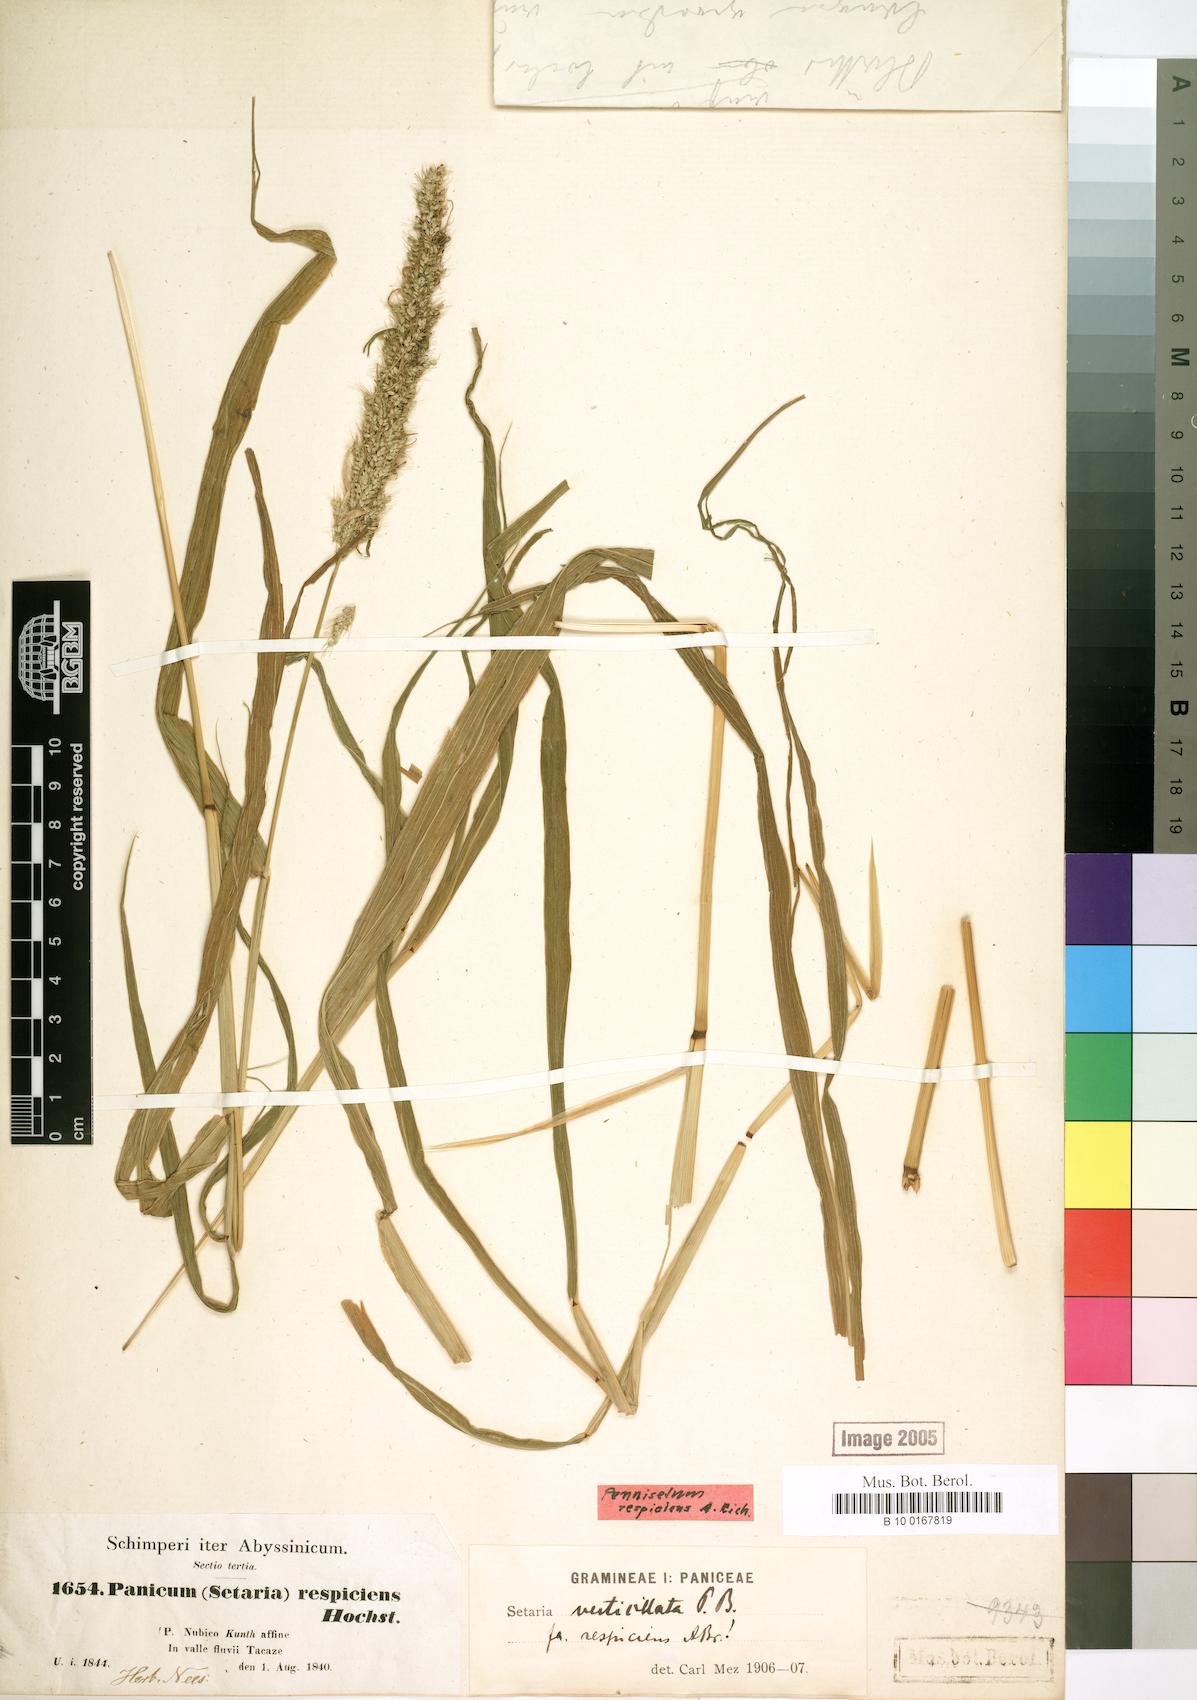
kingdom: Plantae
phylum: Tracheophyta
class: Liliopsida
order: Poales
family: Poaceae
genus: Setaria
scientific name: Setaria adhaerens
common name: Adherent bristle-grass
